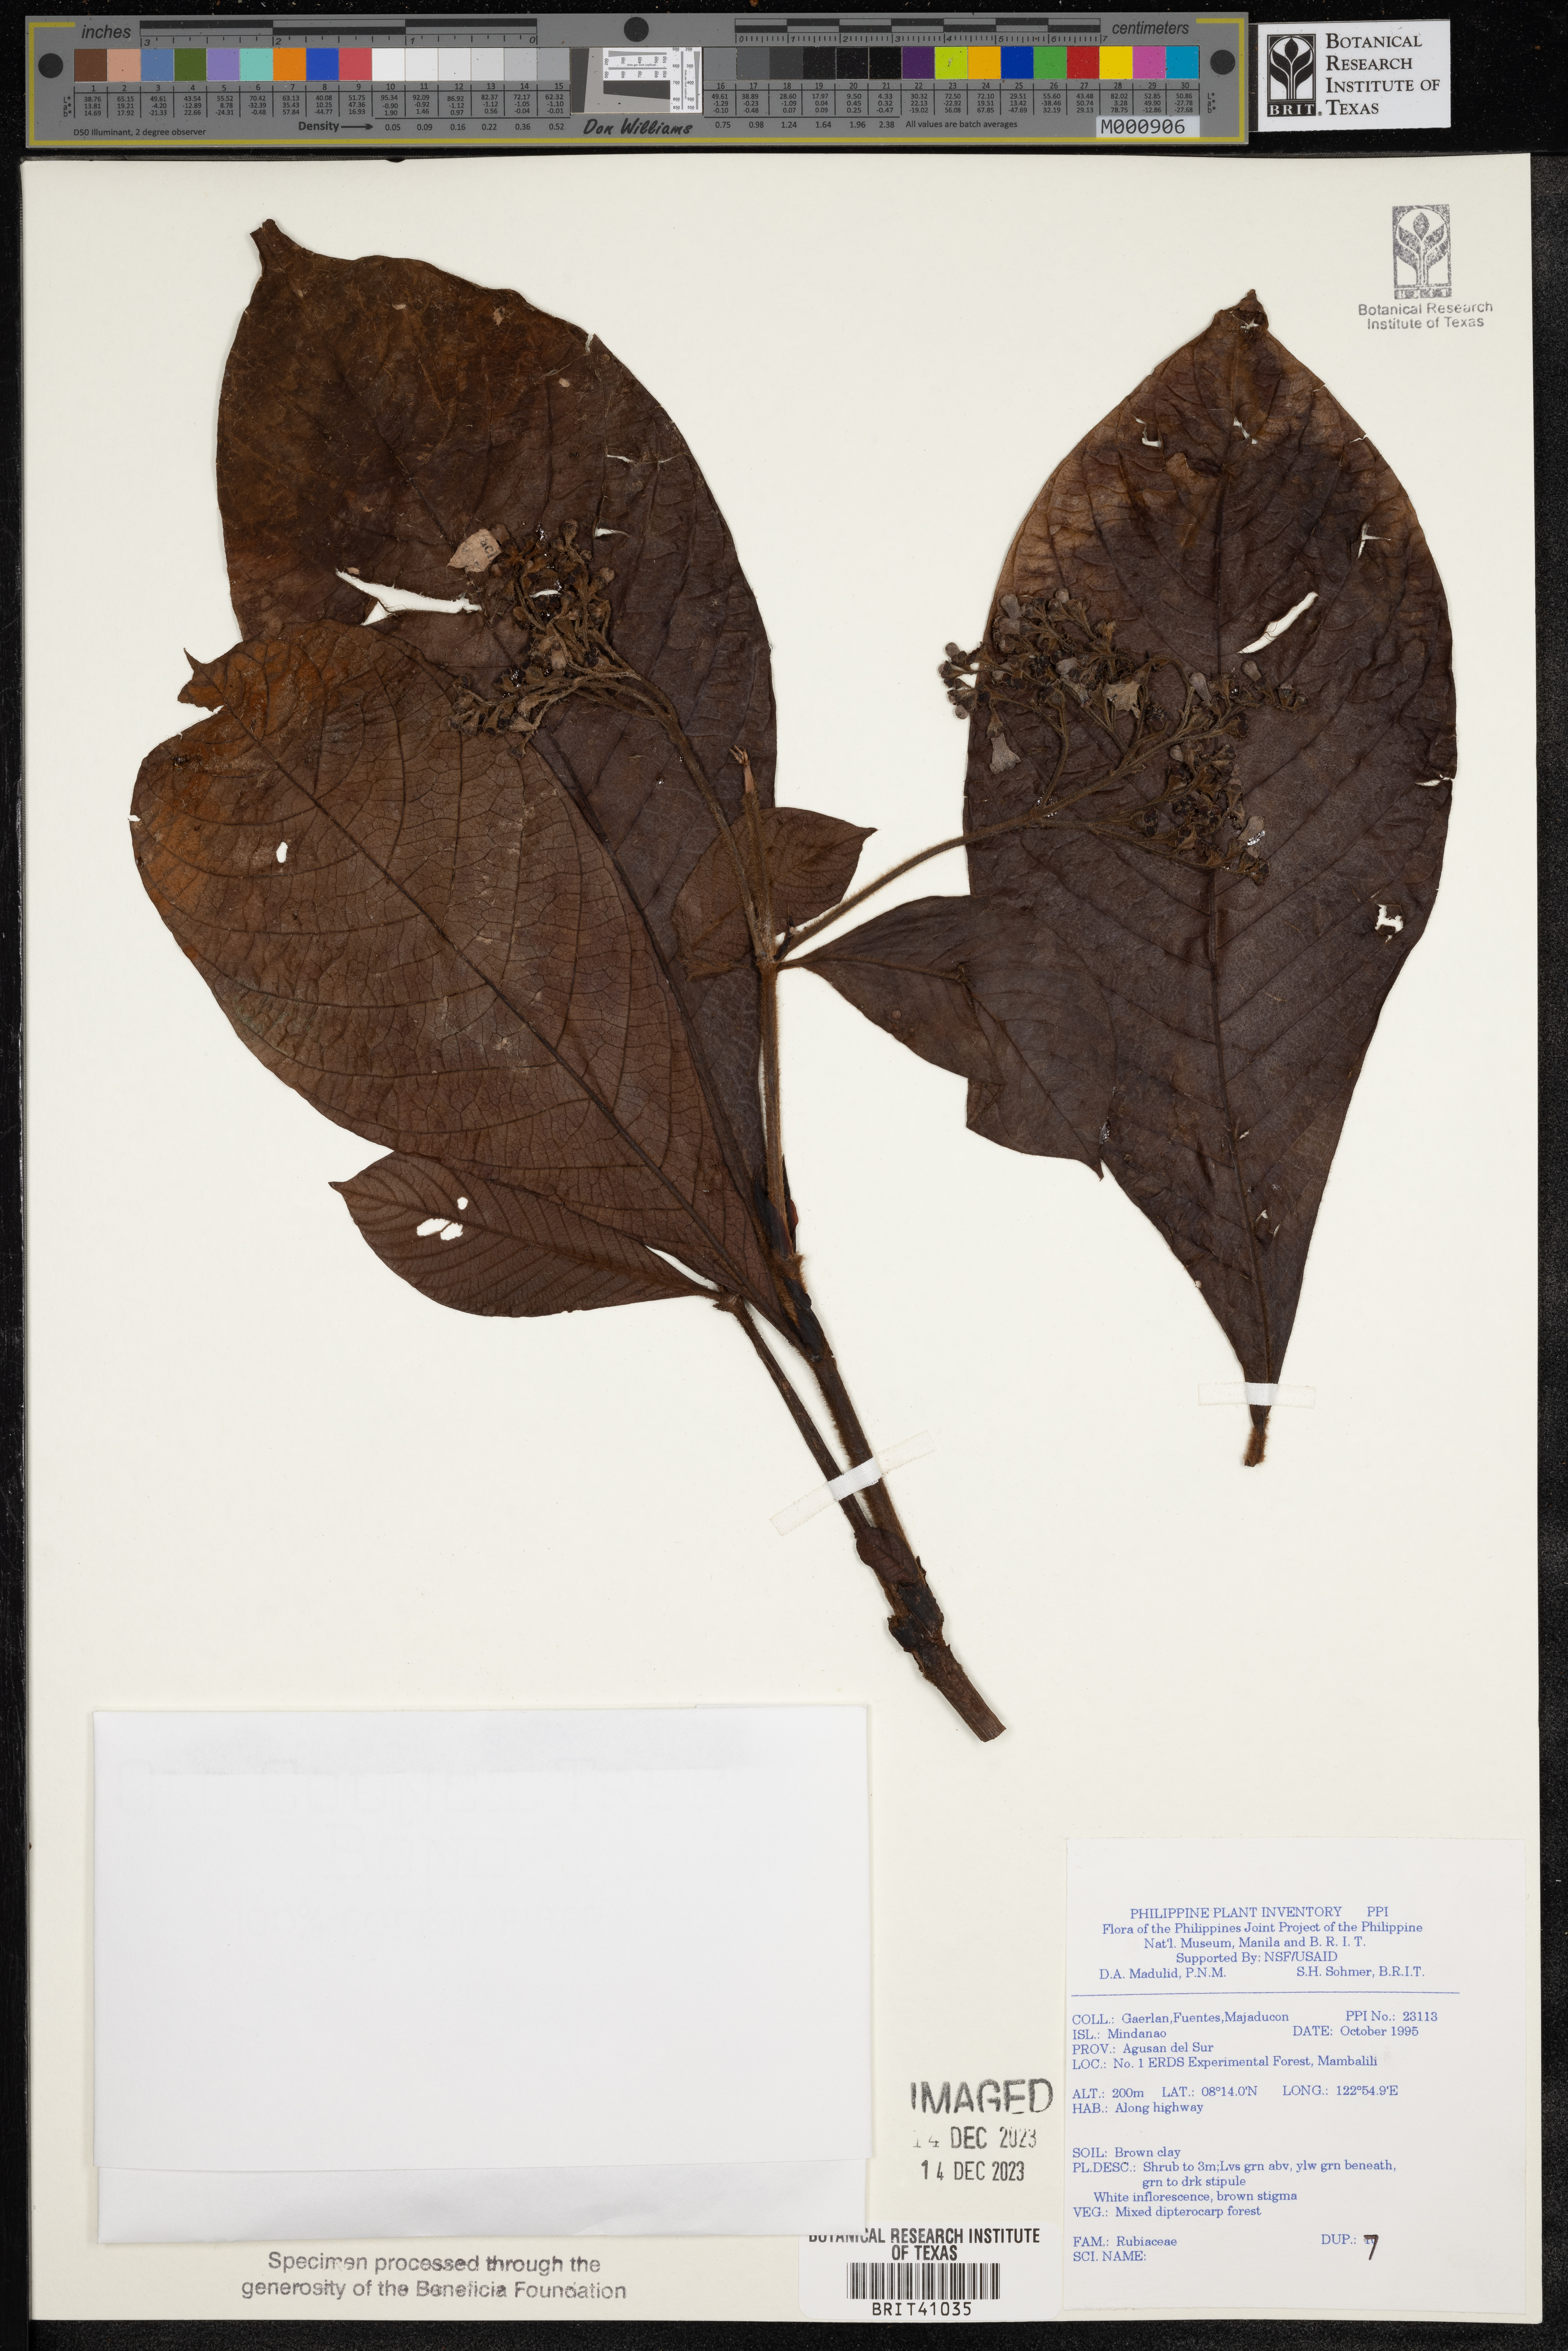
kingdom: Plantae
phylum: Tracheophyta
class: Magnoliopsida
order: Gentianales
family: Rubiaceae
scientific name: Rubiaceae
